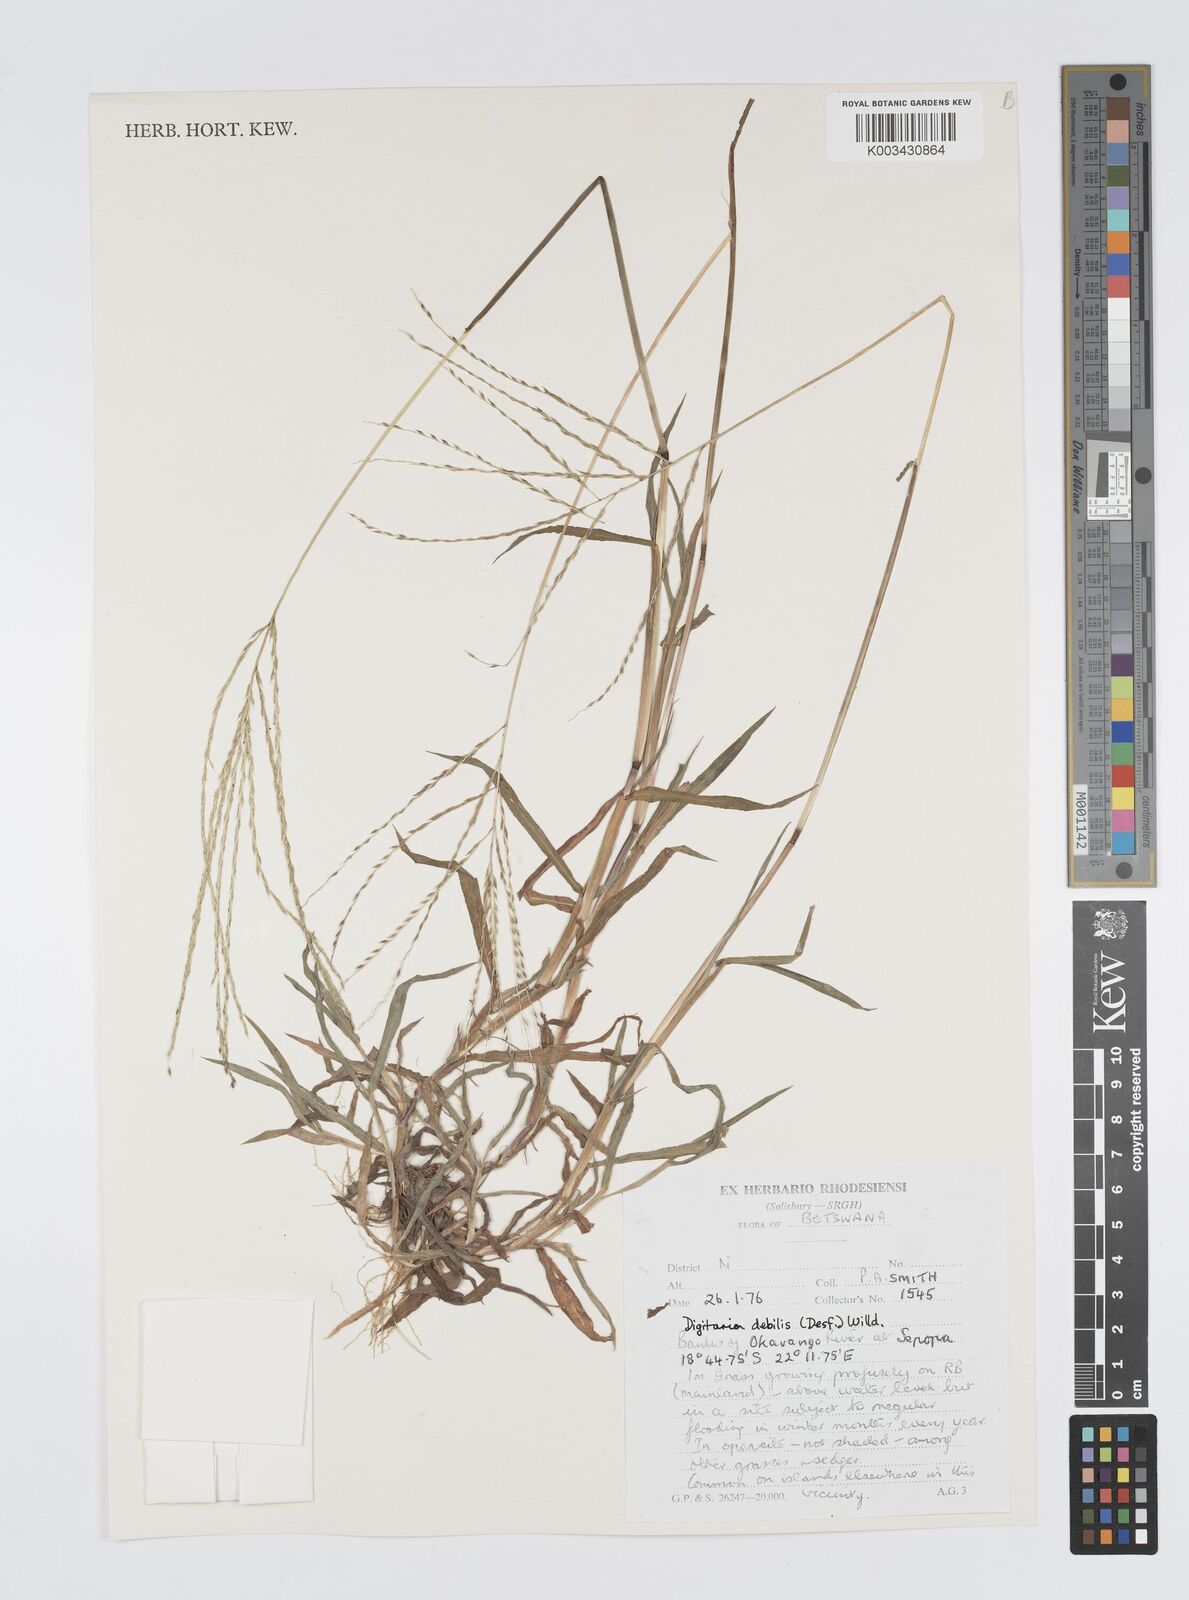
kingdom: Plantae
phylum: Tracheophyta
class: Liliopsida
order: Poales
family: Poaceae
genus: Digitaria
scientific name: Digitaria debilis
